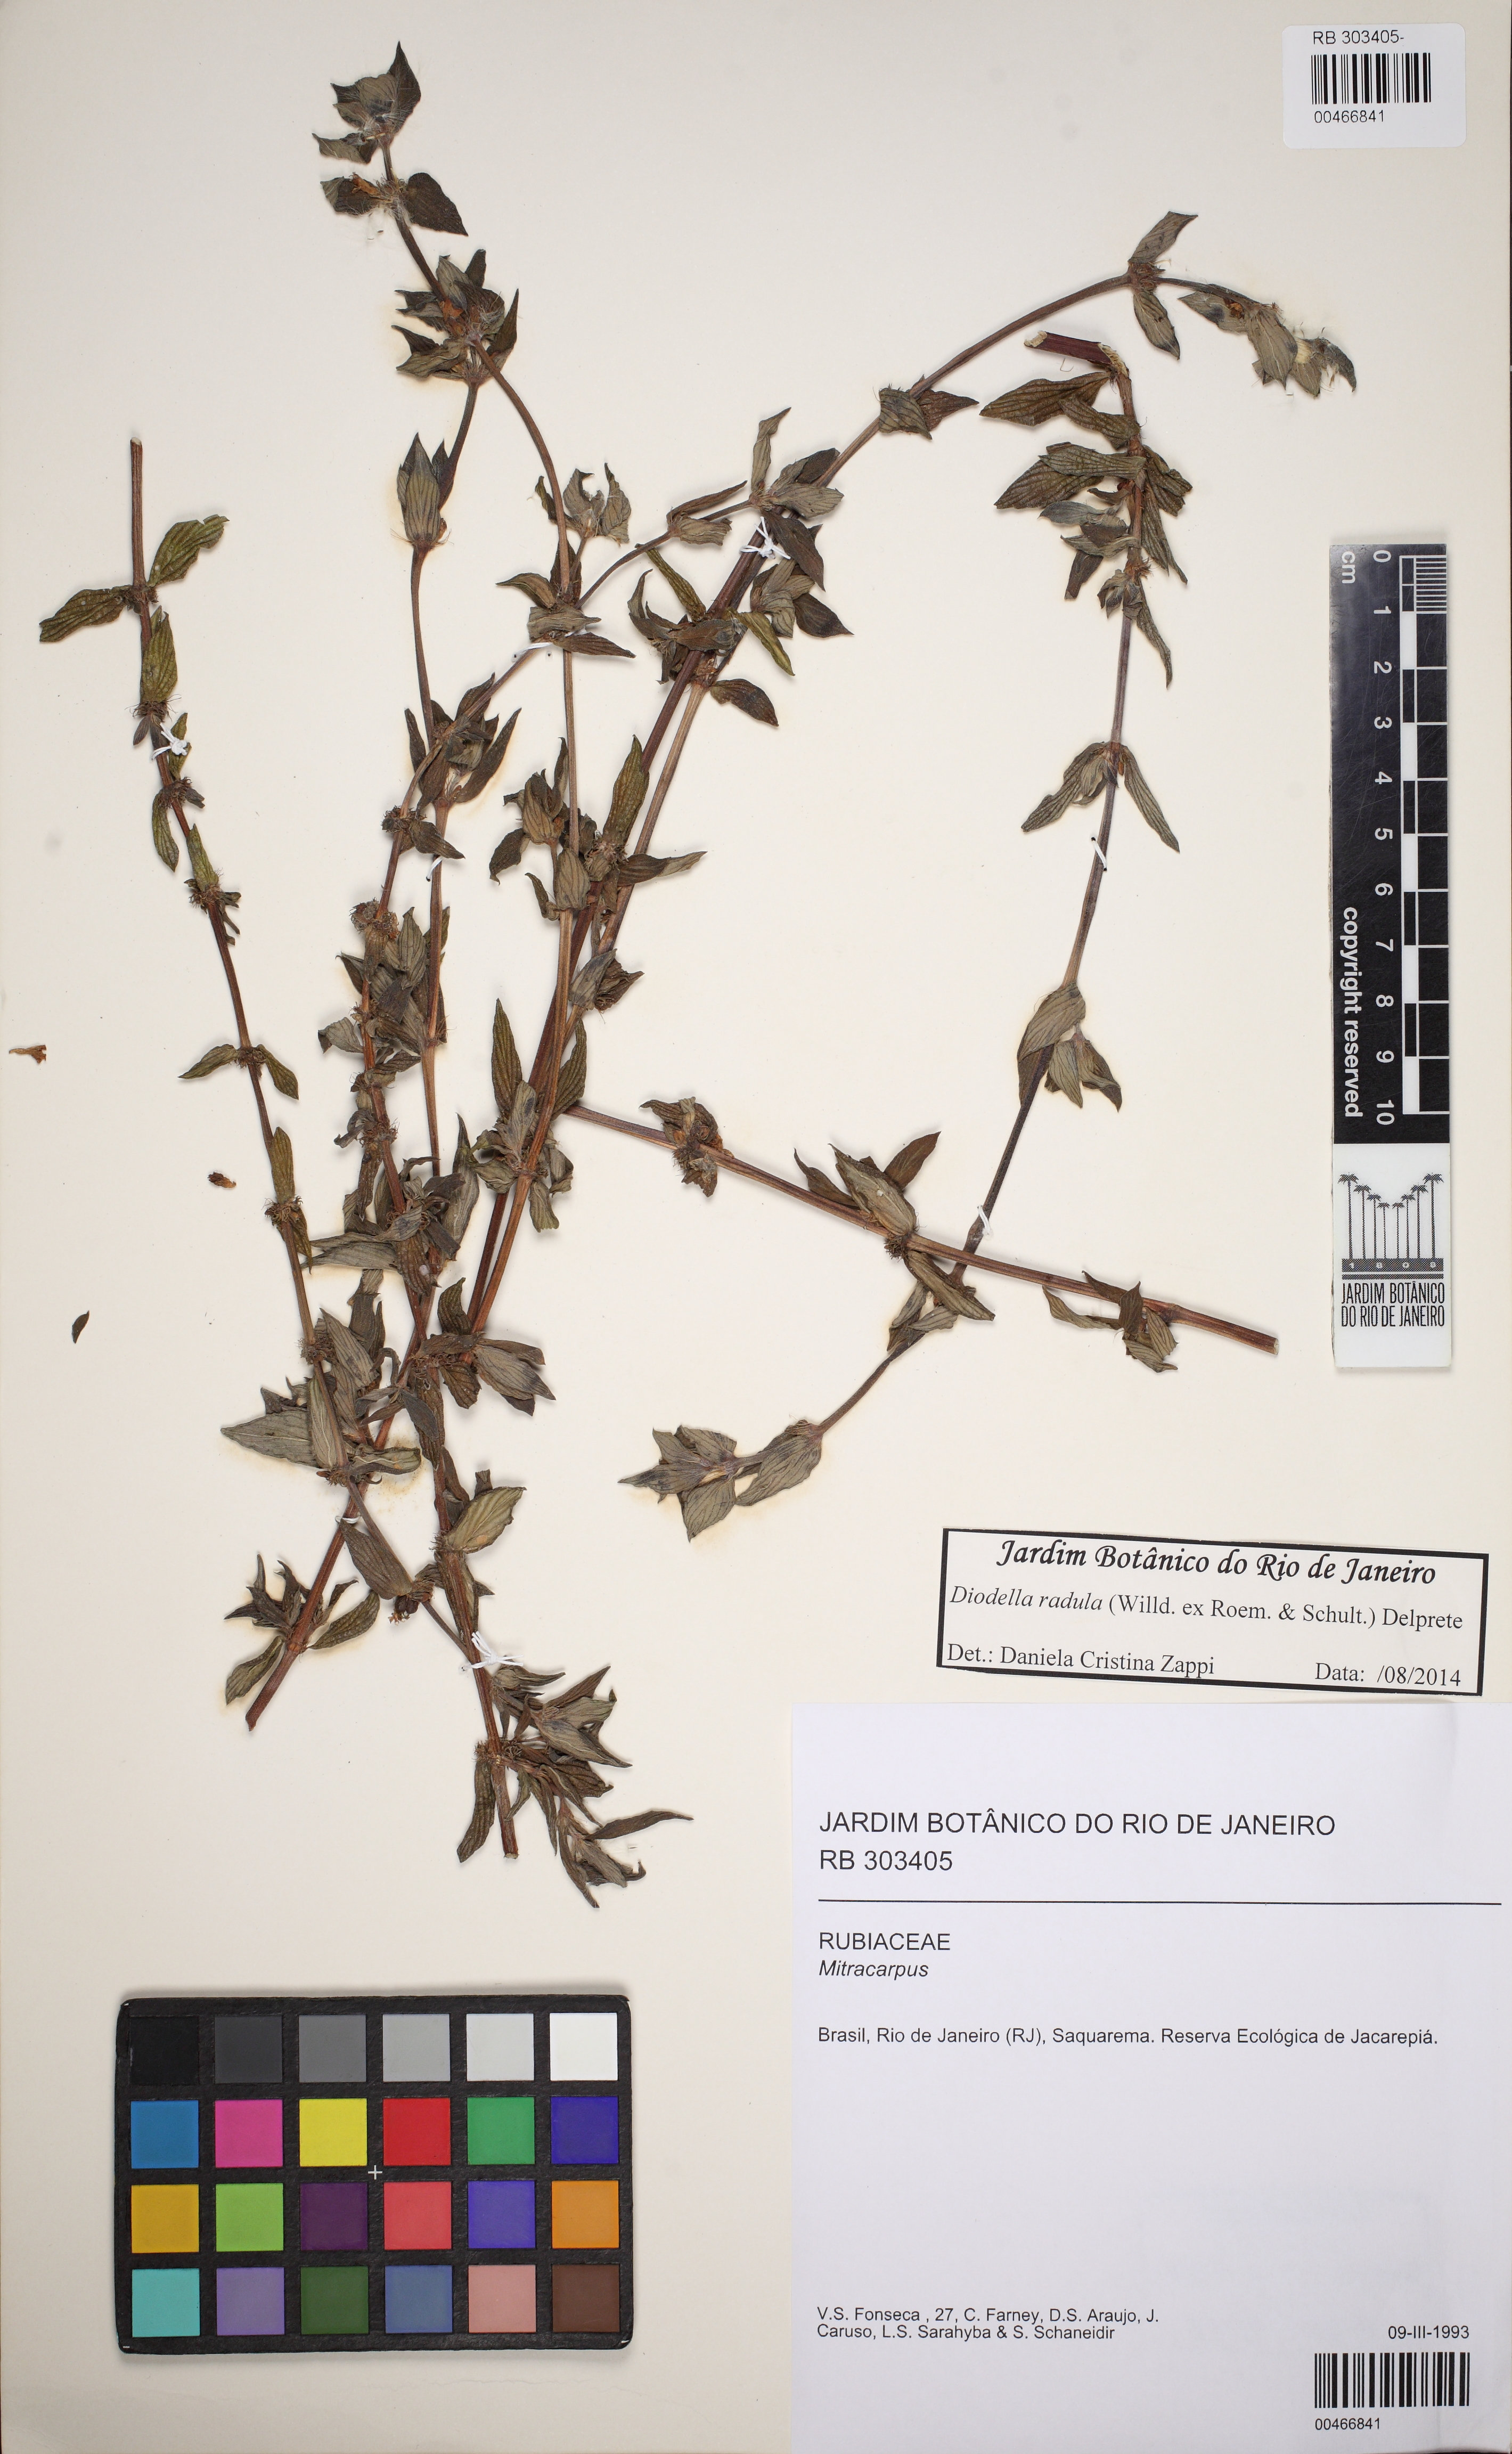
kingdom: Plantae
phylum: Tracheophyta
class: Magnoliopsida
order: Gentianales
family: Rubiaceae
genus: Hexasepalum
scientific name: Hexasepalum radulum
